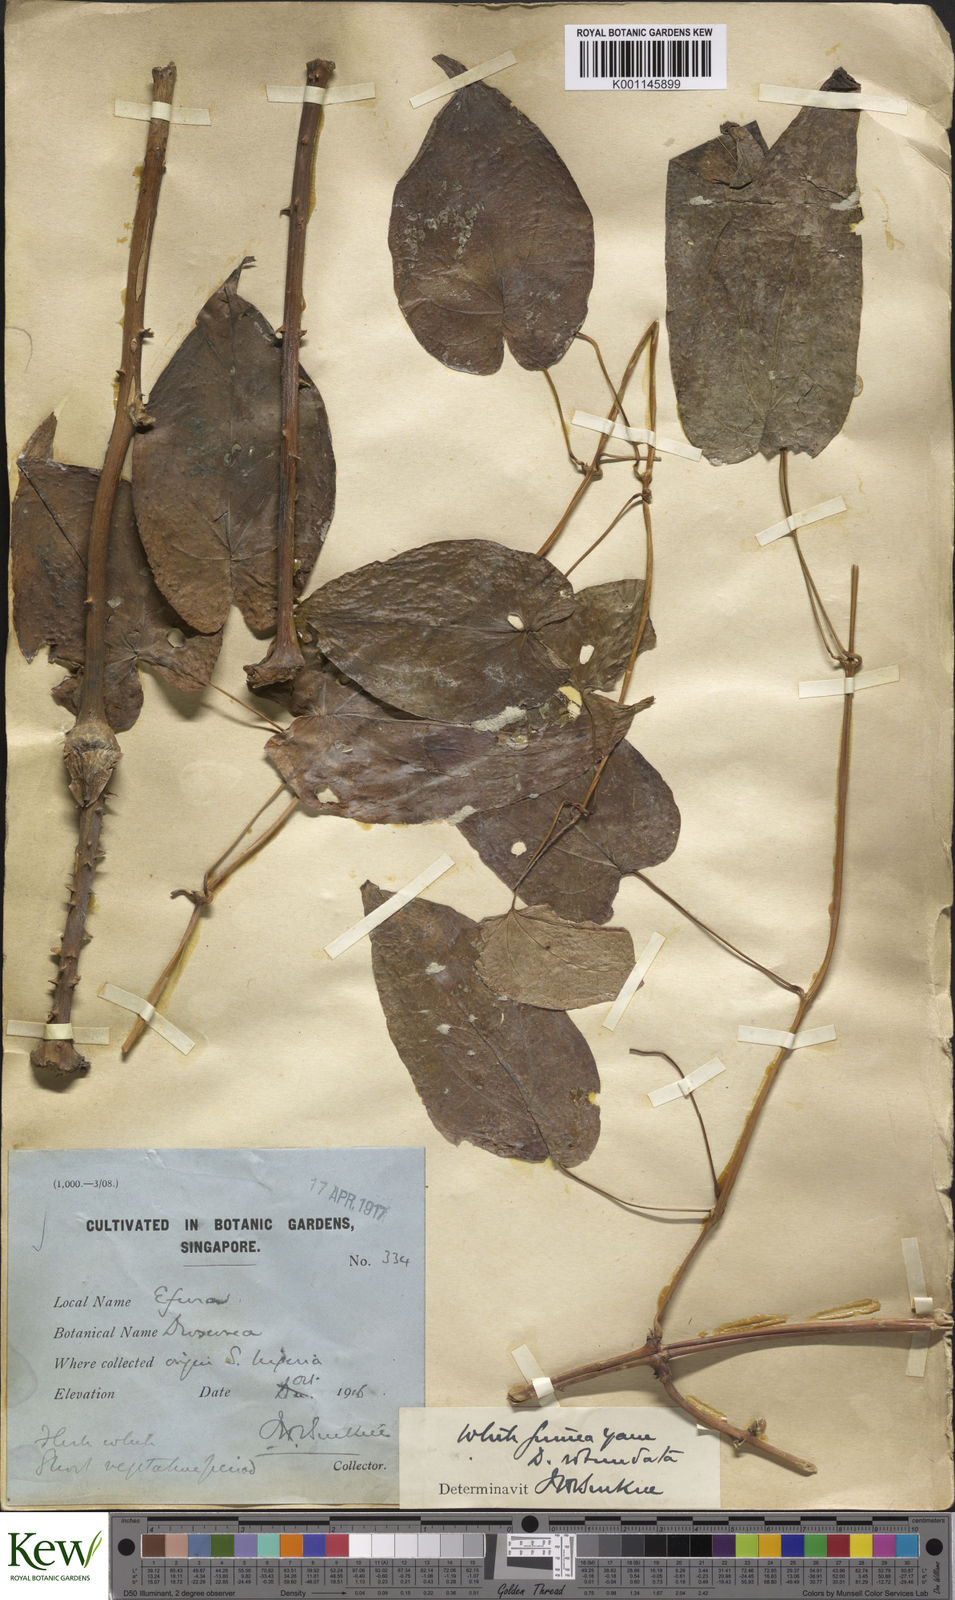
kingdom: Plantae
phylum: Tracheophyta
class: Liliopsida
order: Dioscoreales
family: Dioscoreaceae
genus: Dioscorea
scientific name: Dioscorea cayenensis
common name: Attoto yam
